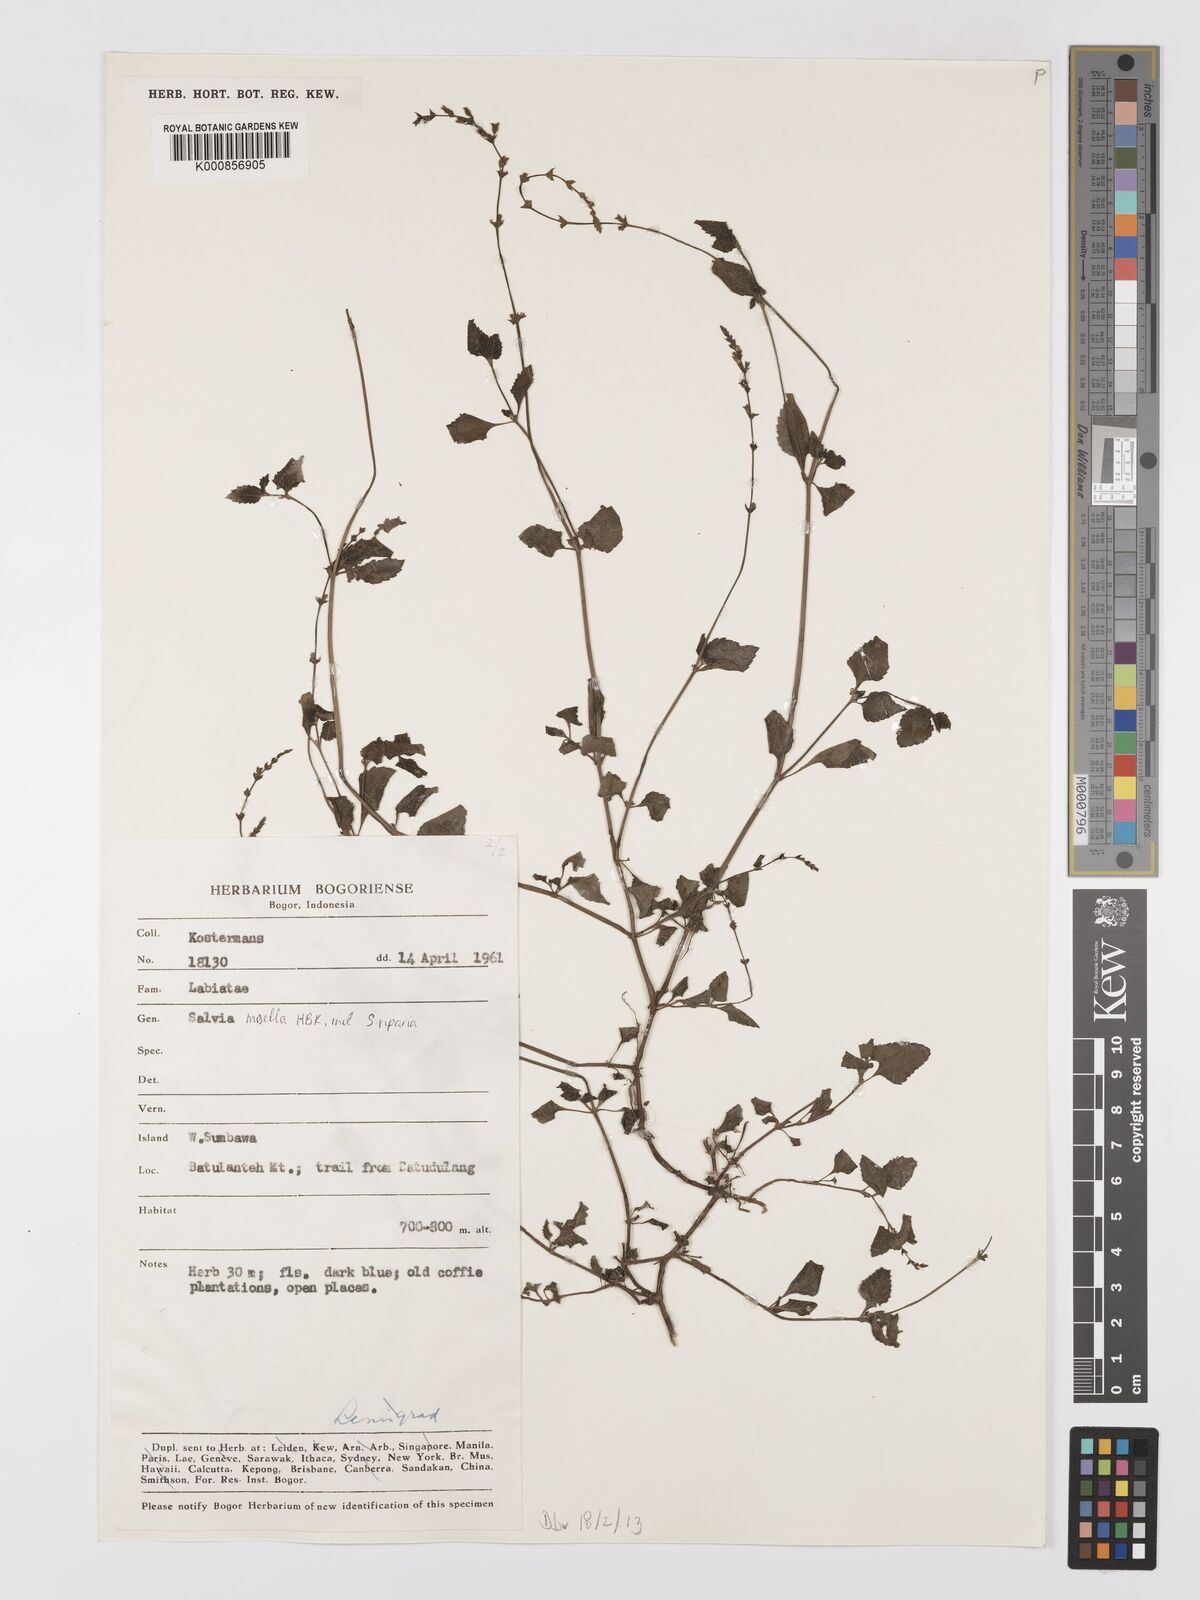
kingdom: Plantae
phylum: Tracheophyta
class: Magnoliopsida
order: Lamiales
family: Lamiaceae
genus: Salvia
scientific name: Salvia misella
